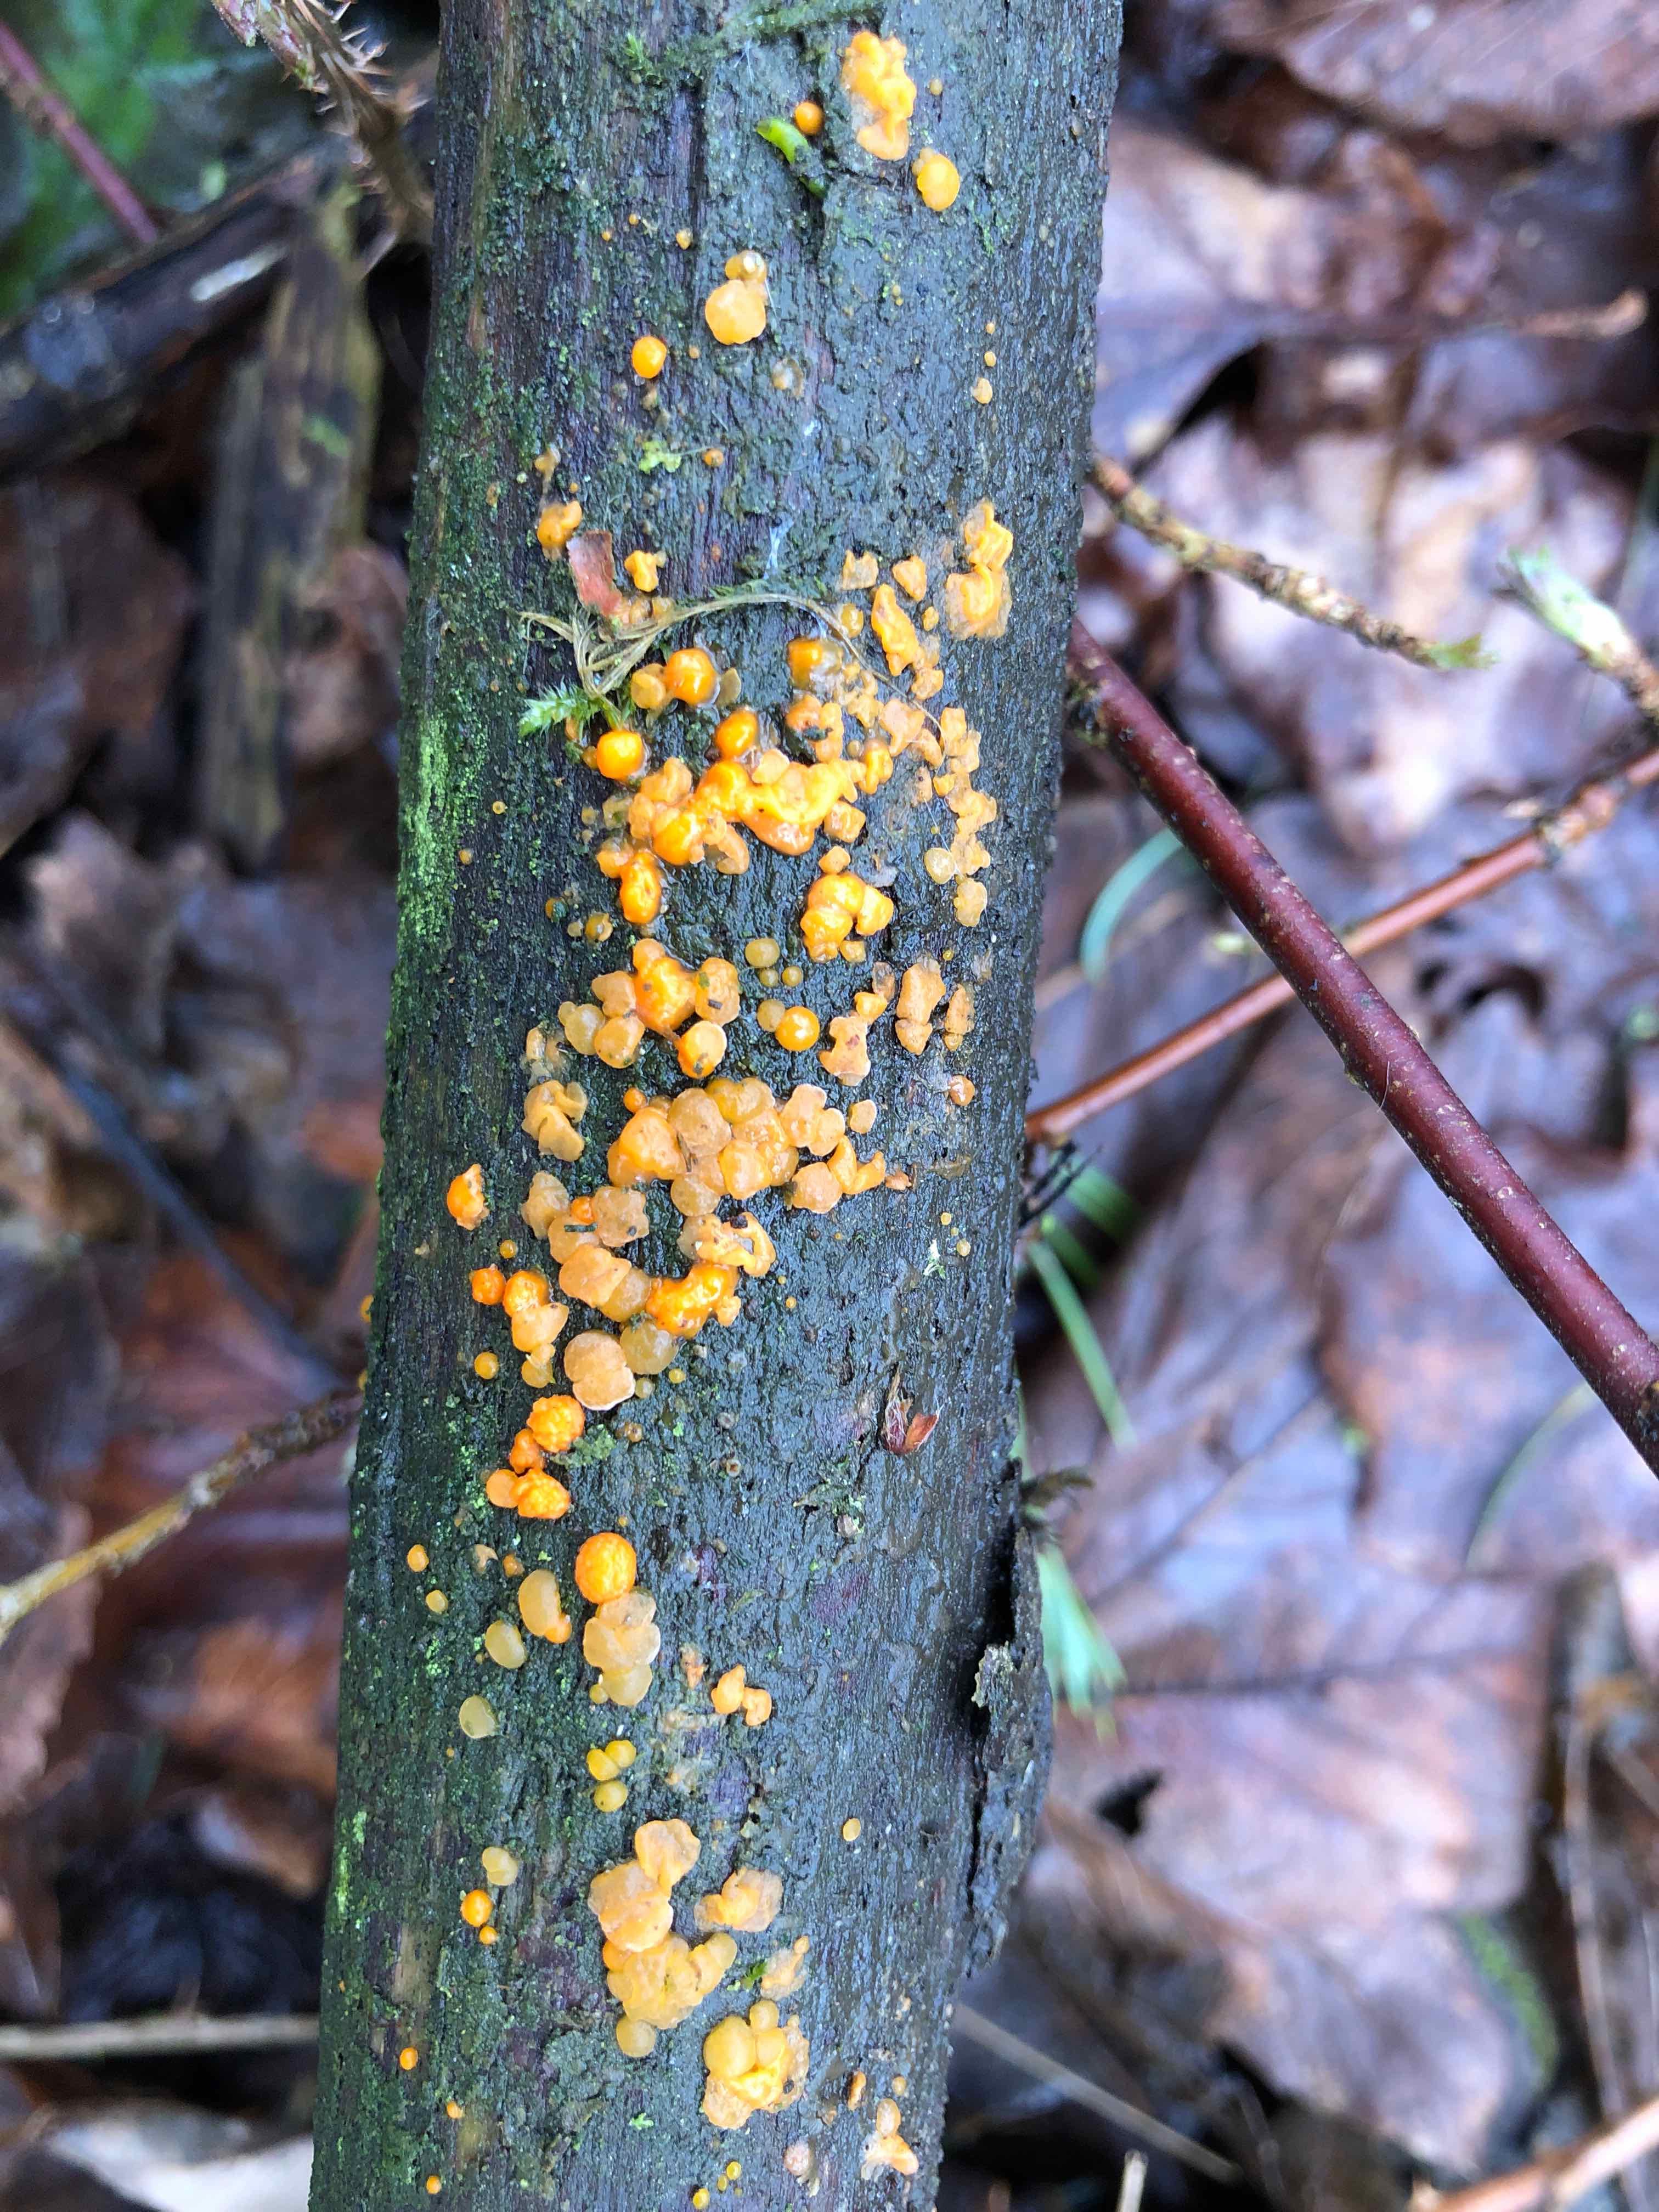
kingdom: Fungi
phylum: Basidiomycota
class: Dacrymycetes
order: Dacrymycetales
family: Dacrymycetaceae
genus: Dacrymyces
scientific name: Dacrymyces stillatus
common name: almindelig tåresvamp
